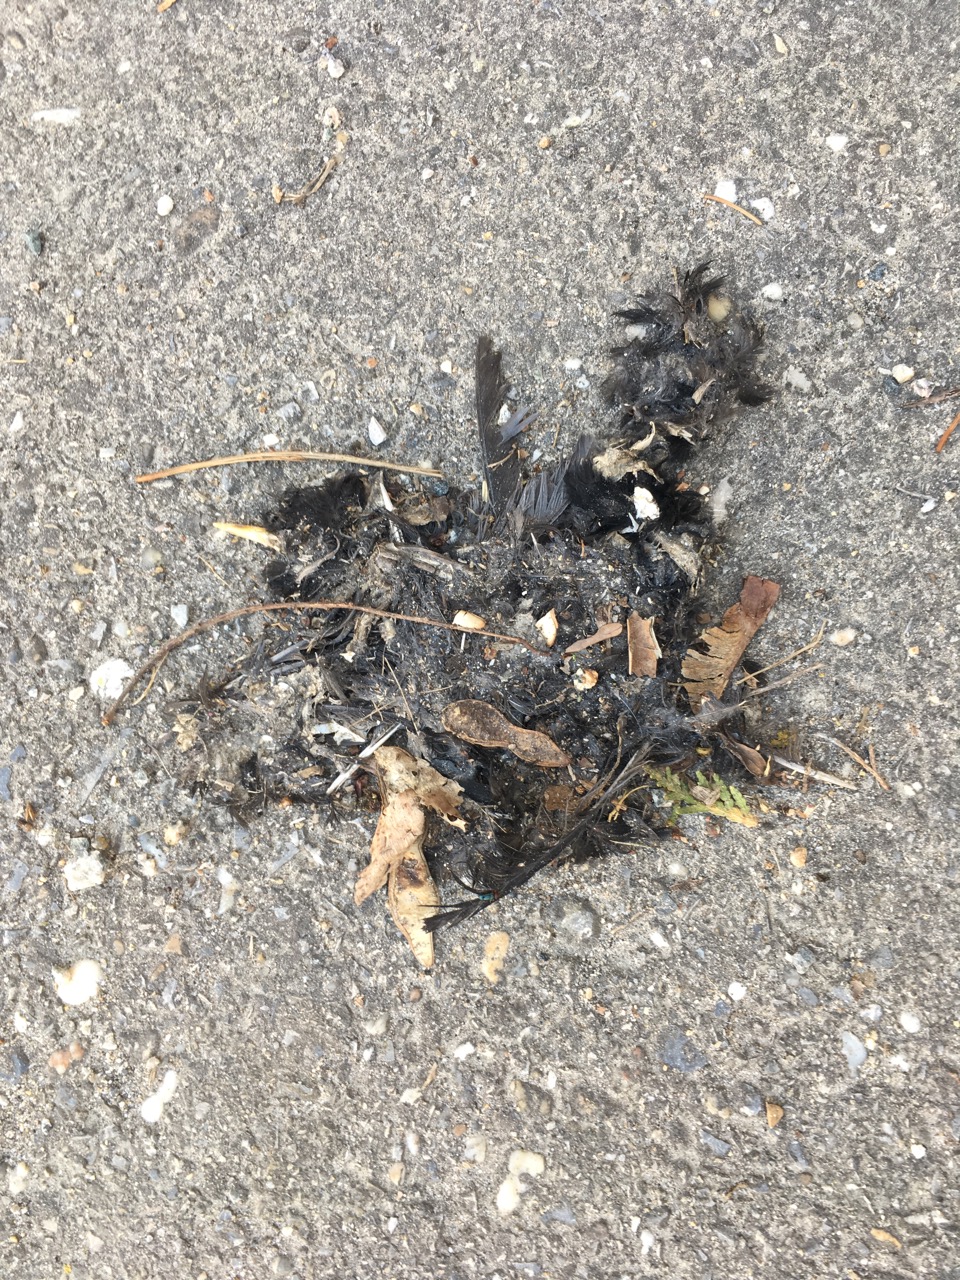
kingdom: Animalia
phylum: Chordata
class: Aves
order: Passeriformes
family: Turdidae
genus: Turdus
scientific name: Turdus merula
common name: Common blackbird
